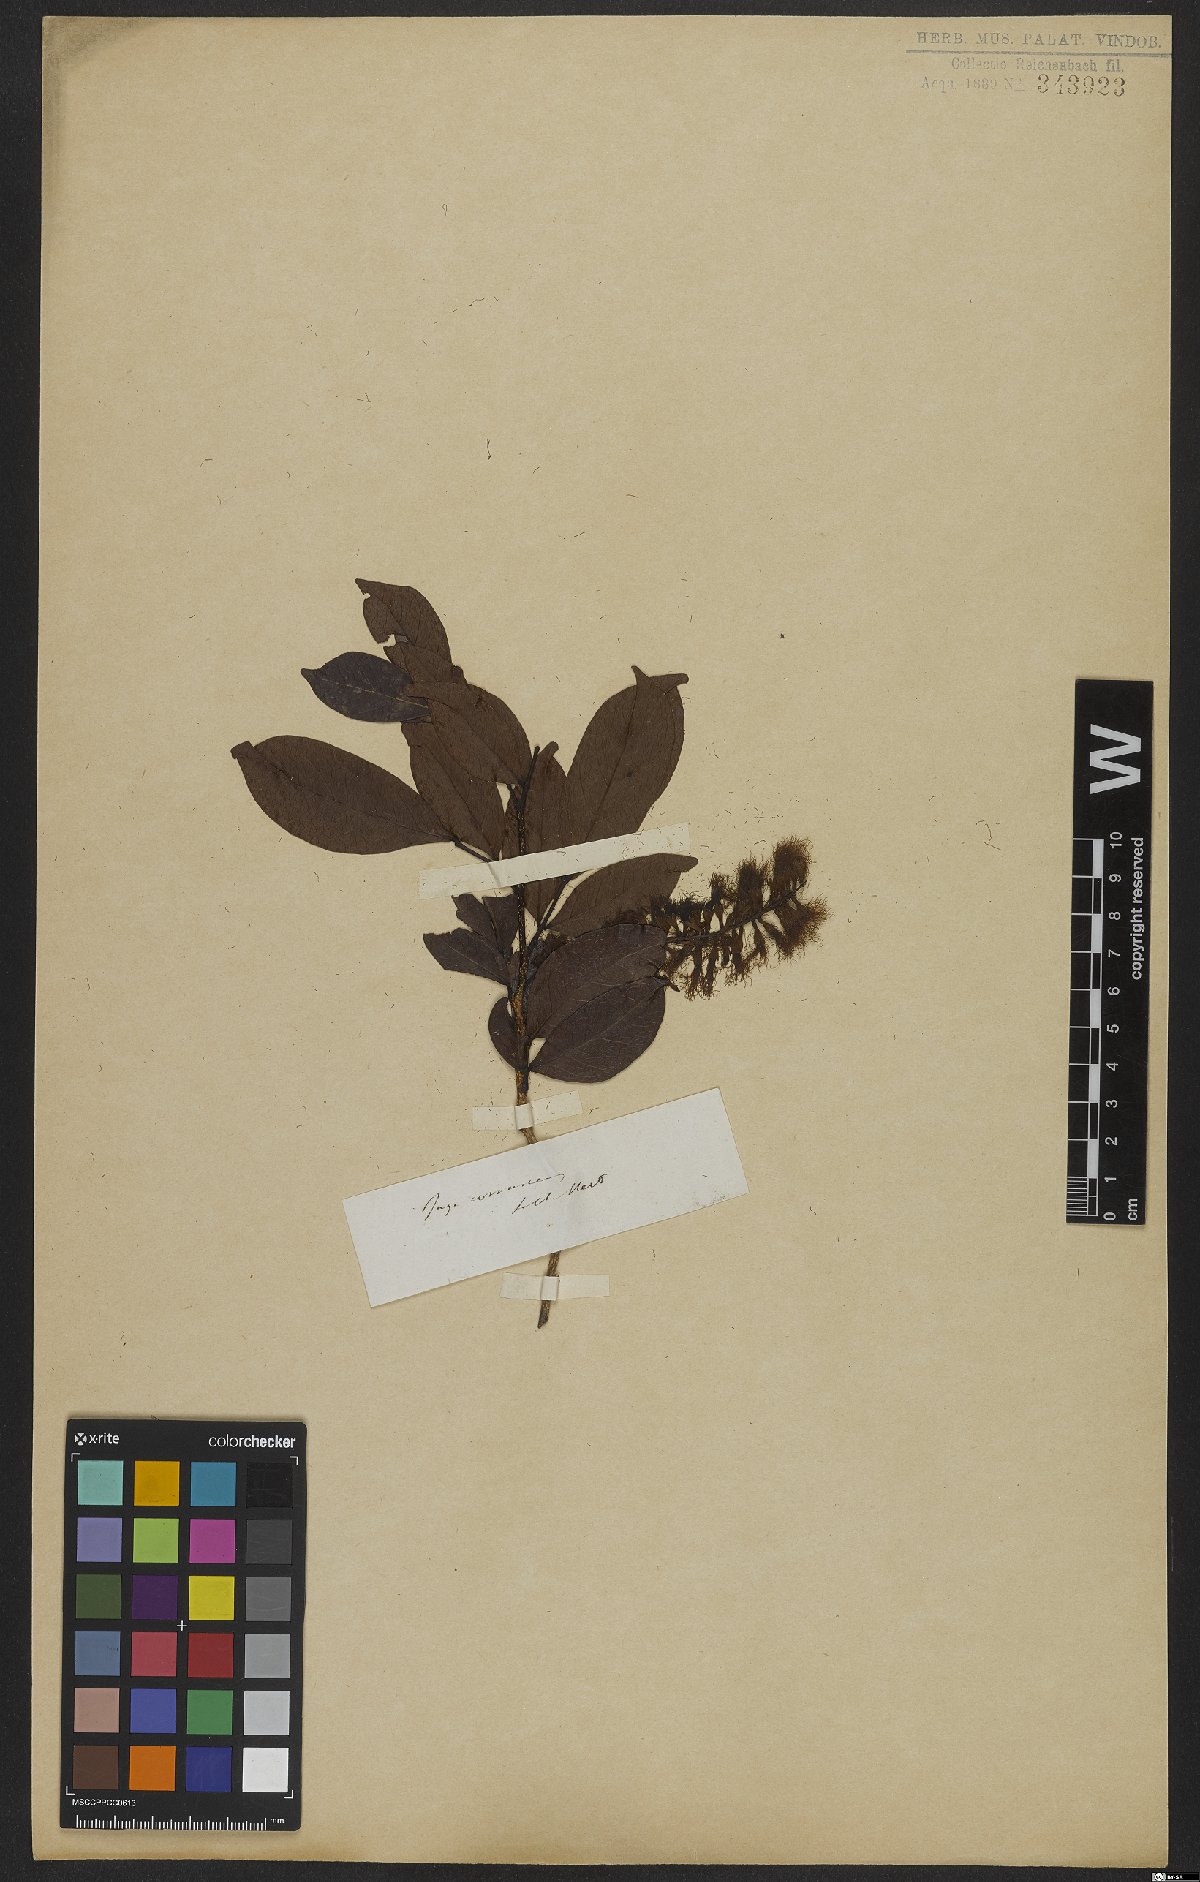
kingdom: Plantae
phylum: Tracheophyta
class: Magnoliopsida
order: Fabales
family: Fabaceae
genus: Inga
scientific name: Inga coruscans
